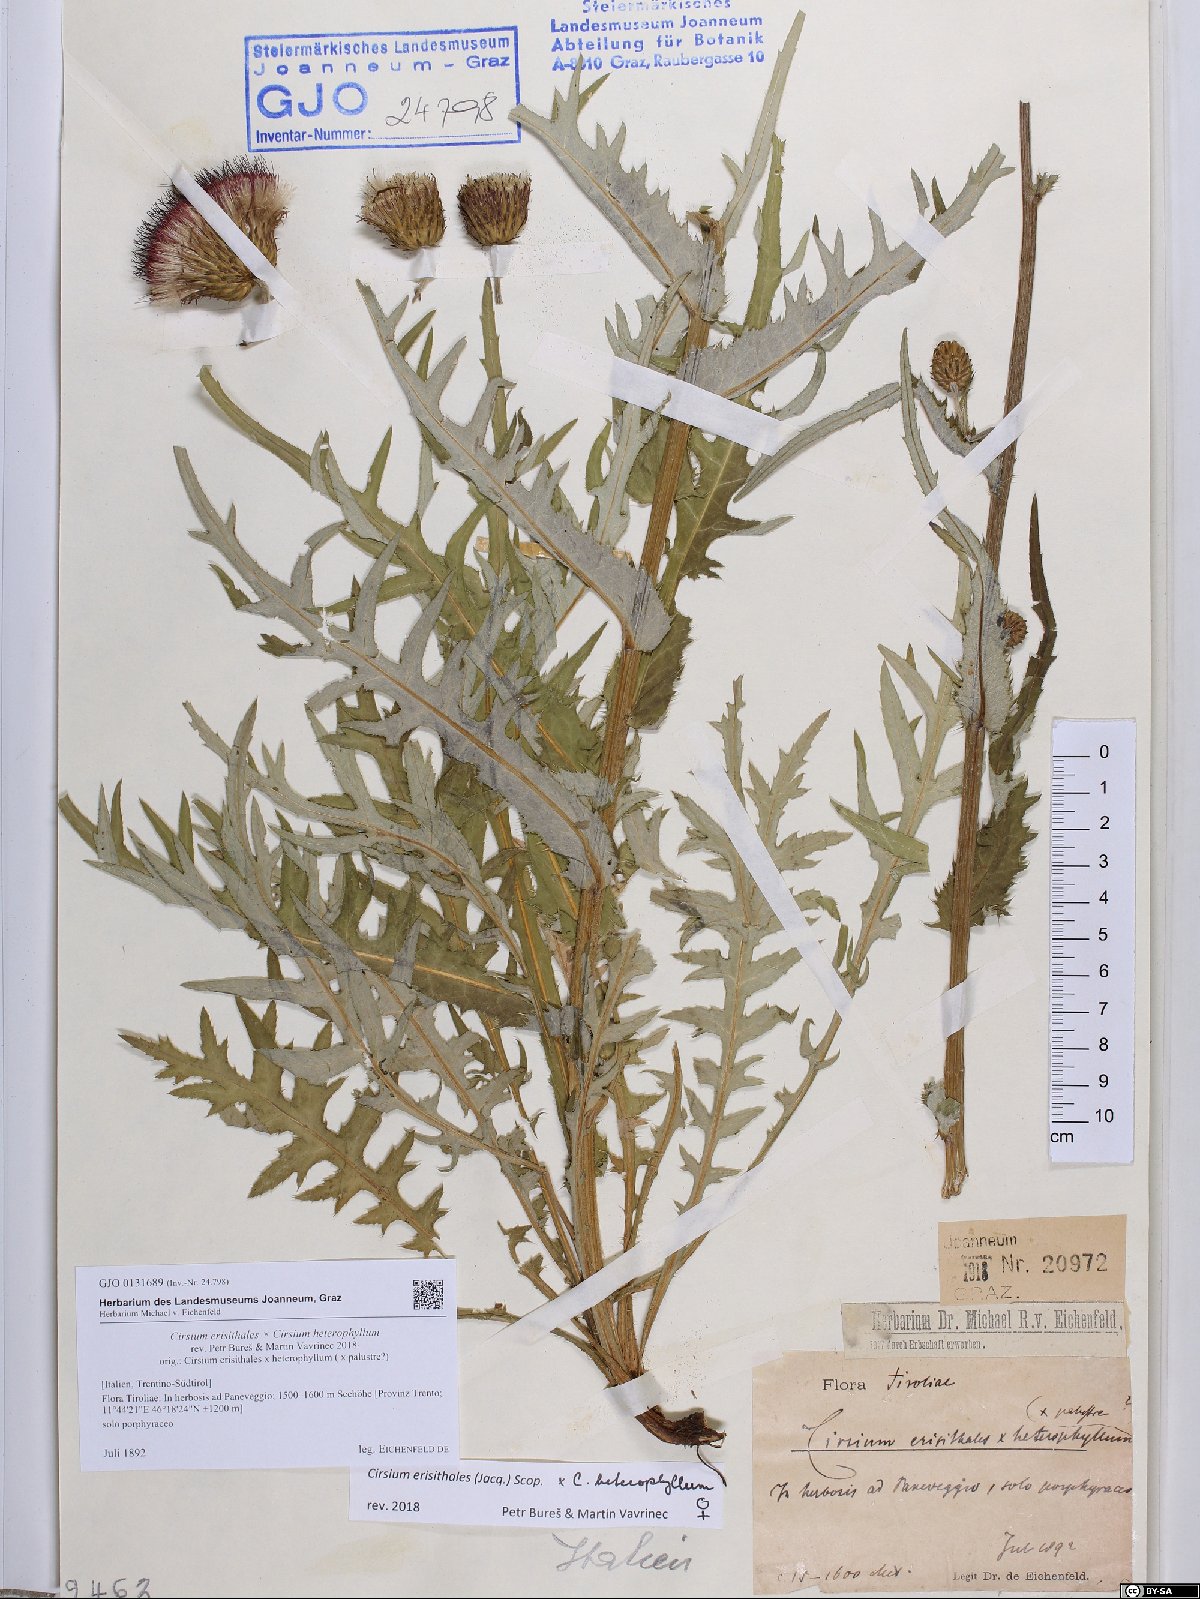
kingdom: Plantae
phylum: Tracheophyta
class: Magnoliopsida
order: Asterales
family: Asteraceae
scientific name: Asteraceae
